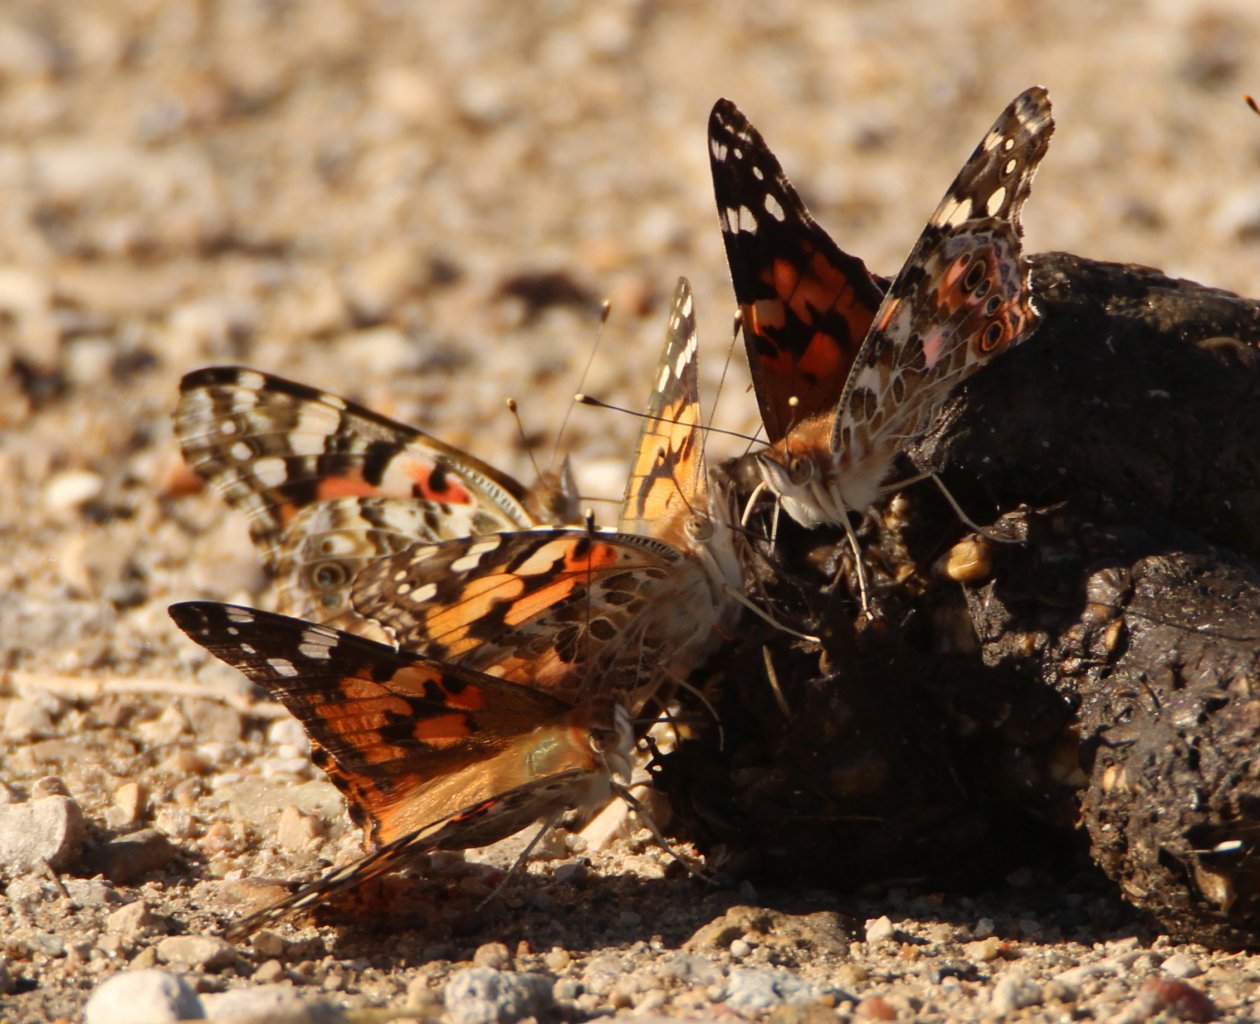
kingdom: Animalia
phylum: Arthropoda
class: Insecta
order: Lepidoptera
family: Nymphalidae
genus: Vanessa
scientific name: Vanessa cardui
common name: Painted Lady
